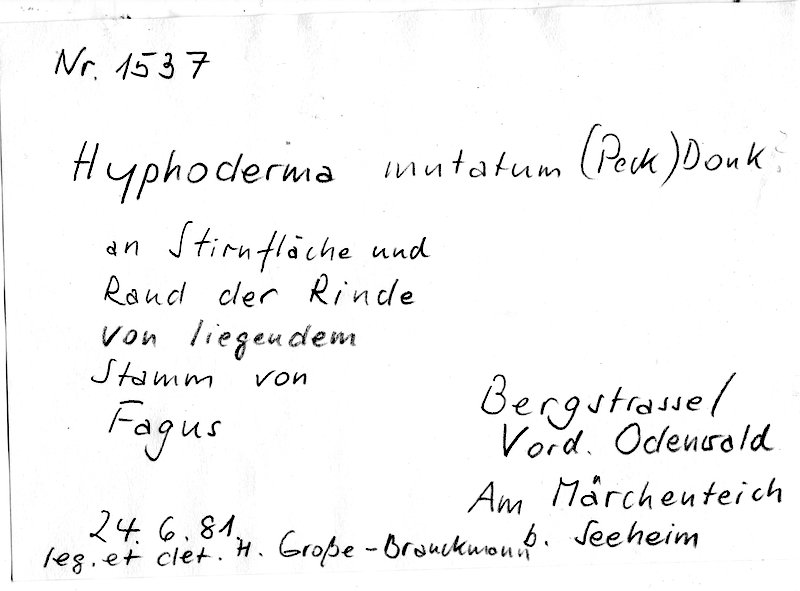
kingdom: Plantae
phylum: Tracheophyta
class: Magnoliopsida
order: Fagales
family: Fagaceae
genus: Fagus
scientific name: Fagus sylvatica
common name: Beech
